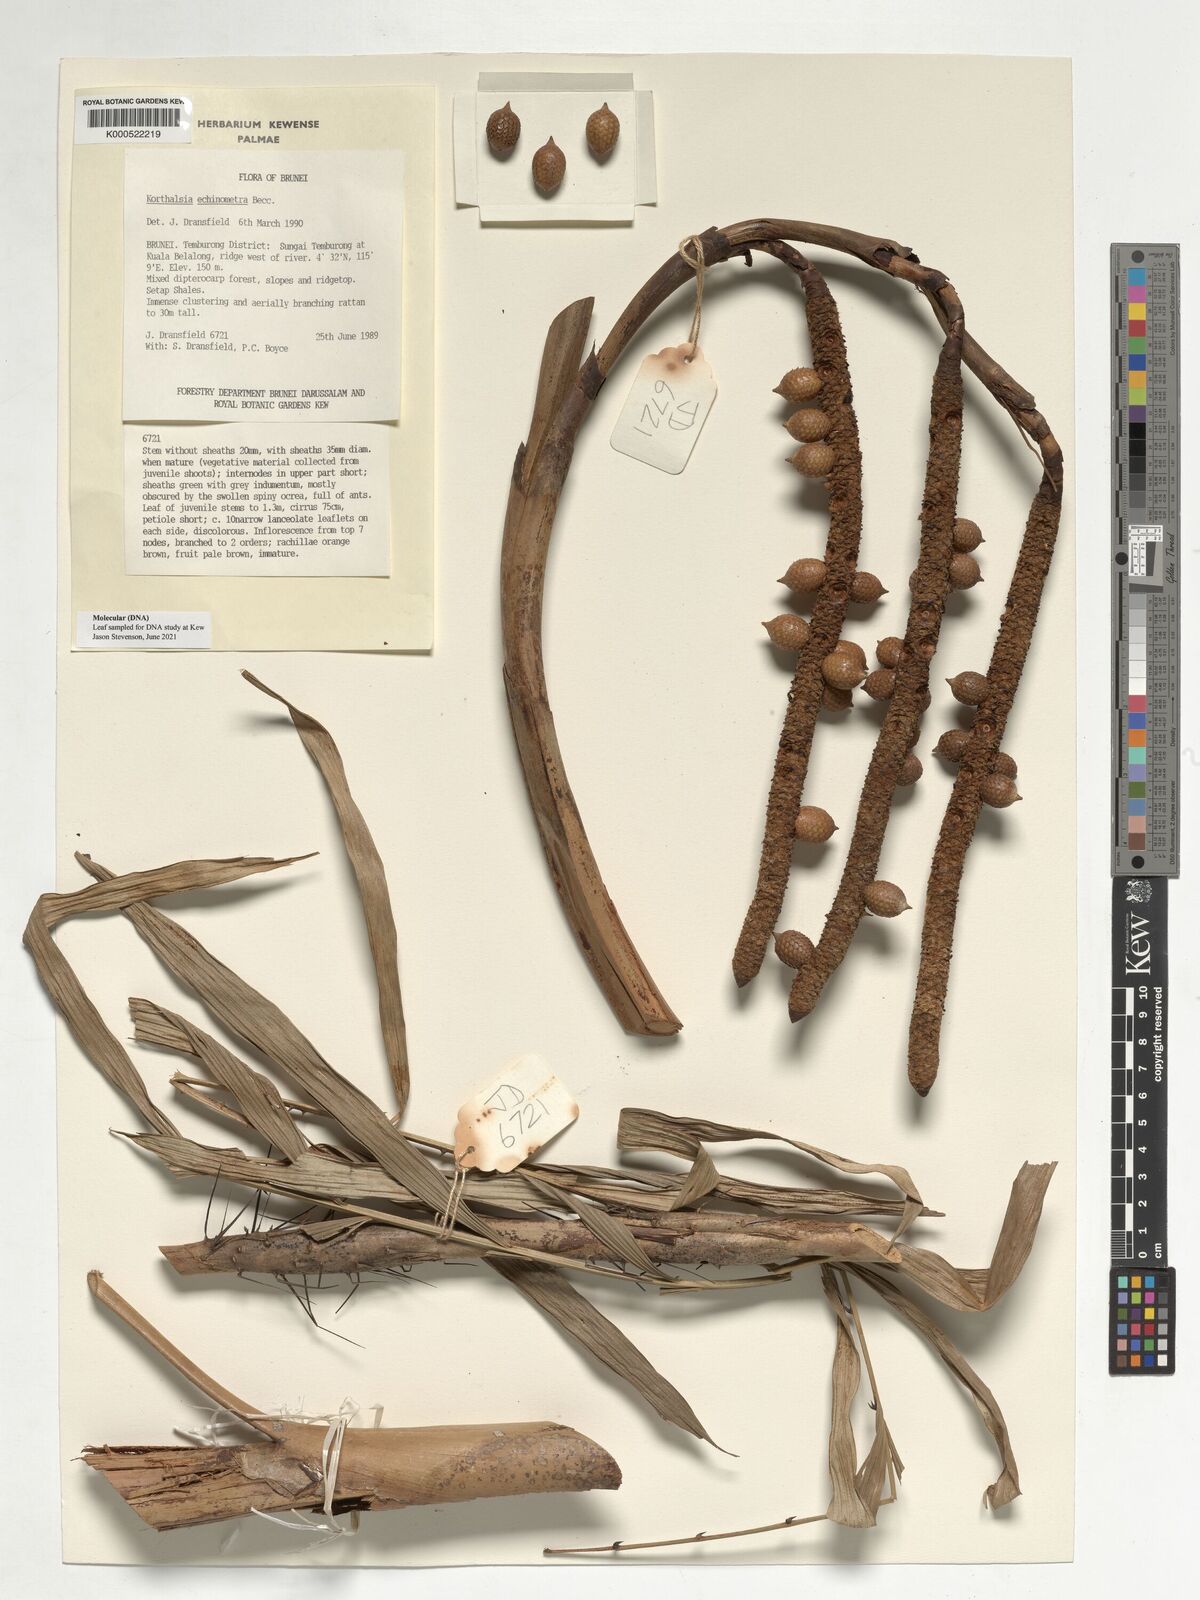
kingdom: Plantae
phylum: Tracheophyta
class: Liliopsida
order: Arecales
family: Arecaceae
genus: Korthalsia
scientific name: Korthalsia echinometra
